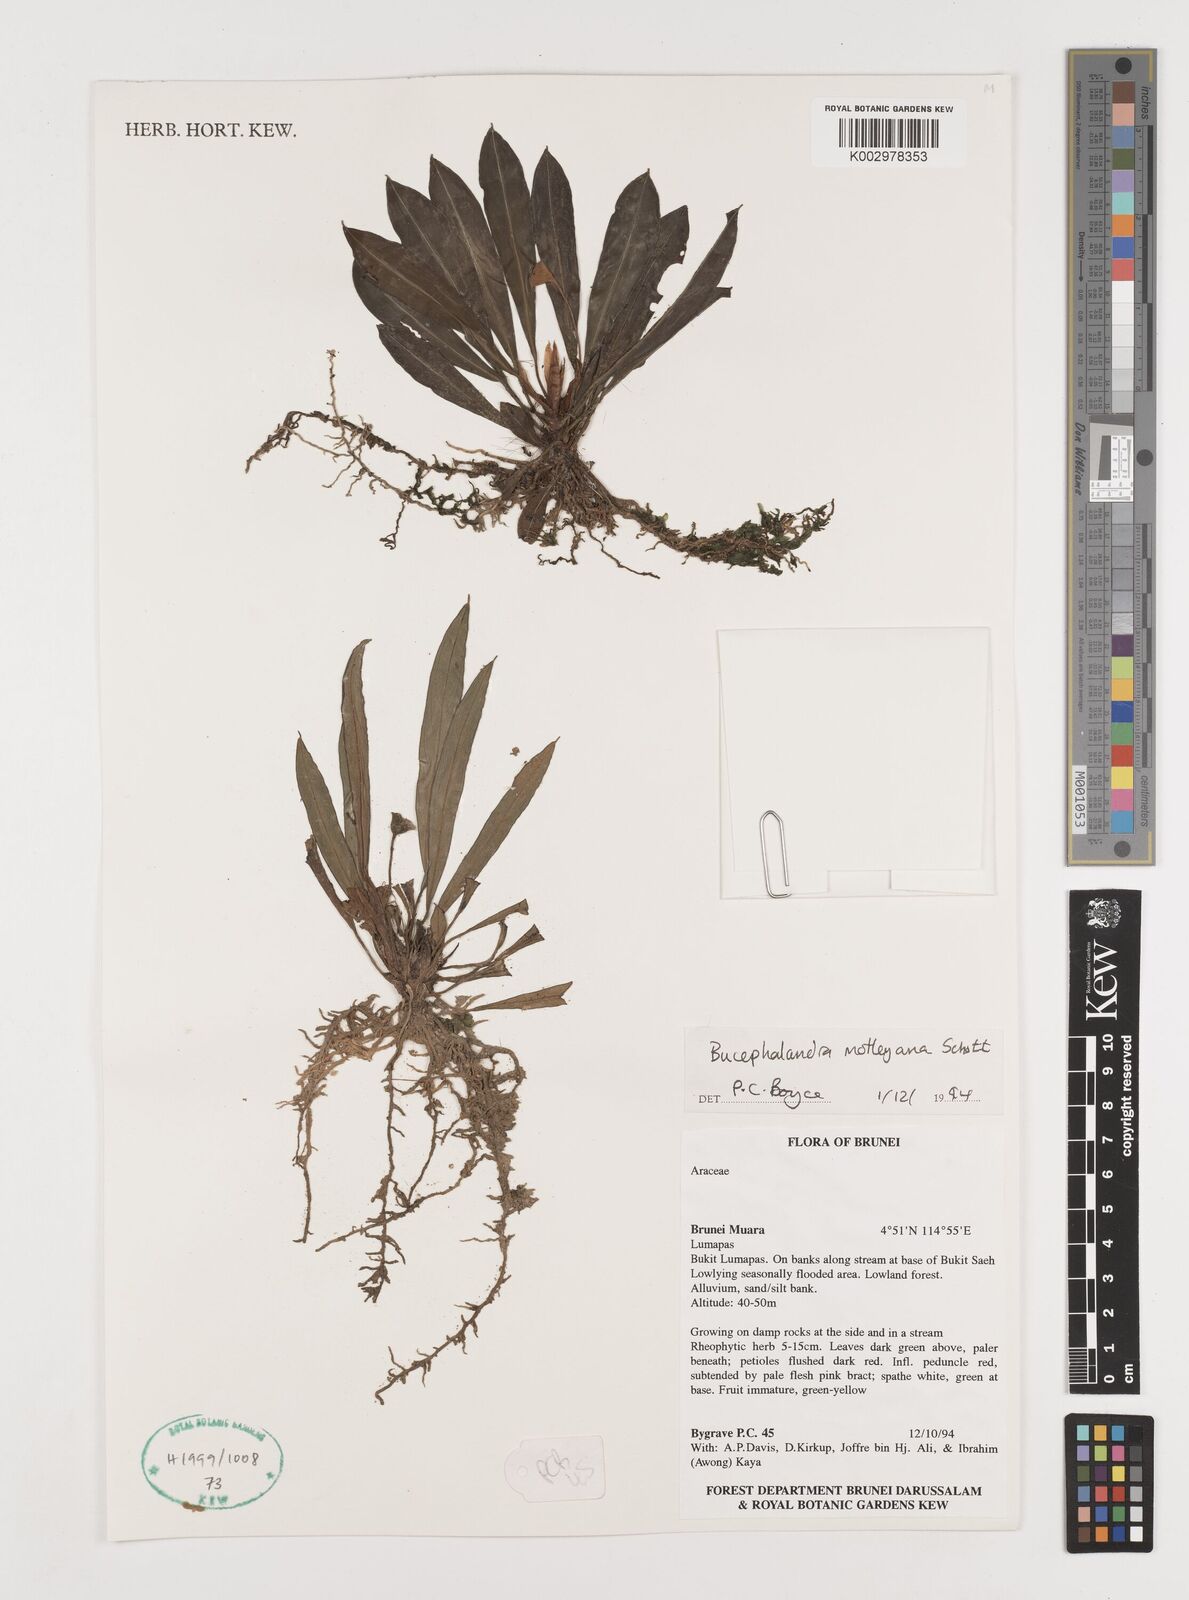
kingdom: Plantae
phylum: Tracheophyta
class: Liliopsida
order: Alismatales
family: Araceae
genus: Bucephalandra
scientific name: Bucephalandra motleyana
